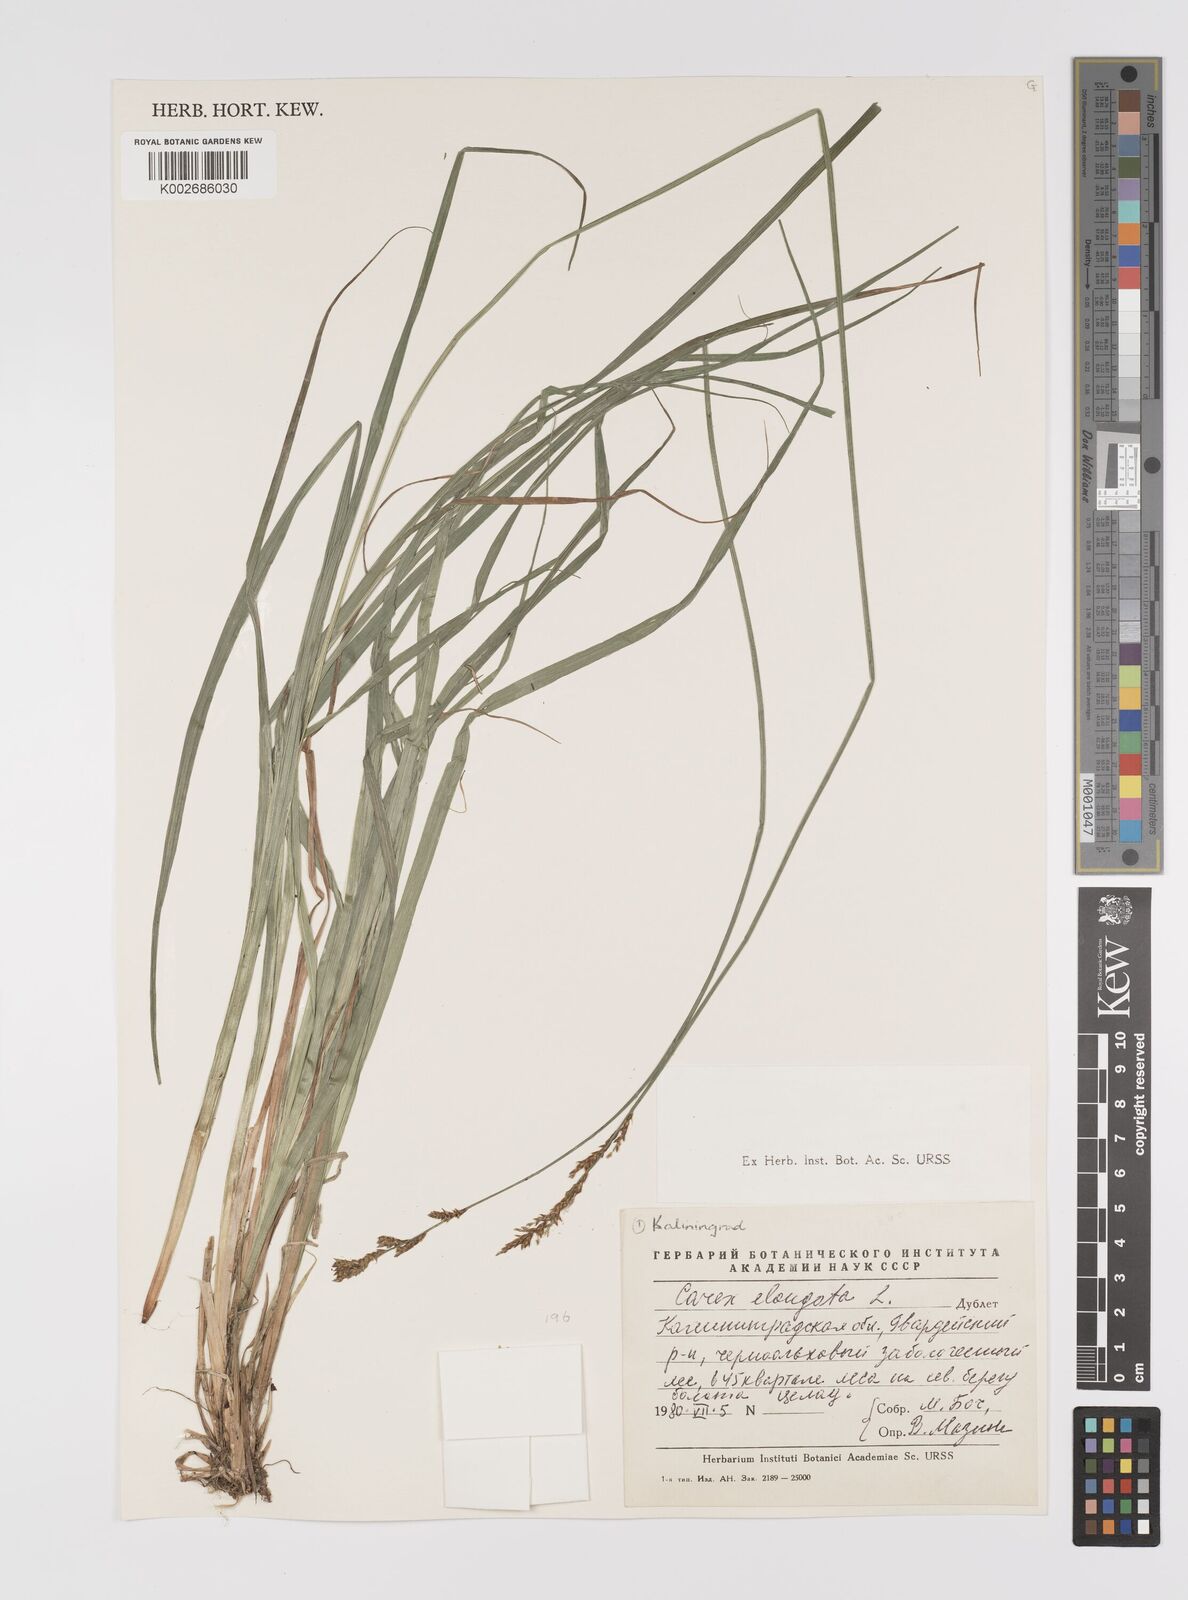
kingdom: Plantae
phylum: Tracheophyta
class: Liliopsida
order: Poales
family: Cyperaceae
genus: Carex
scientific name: Carex elongata
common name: Elongated sedge
